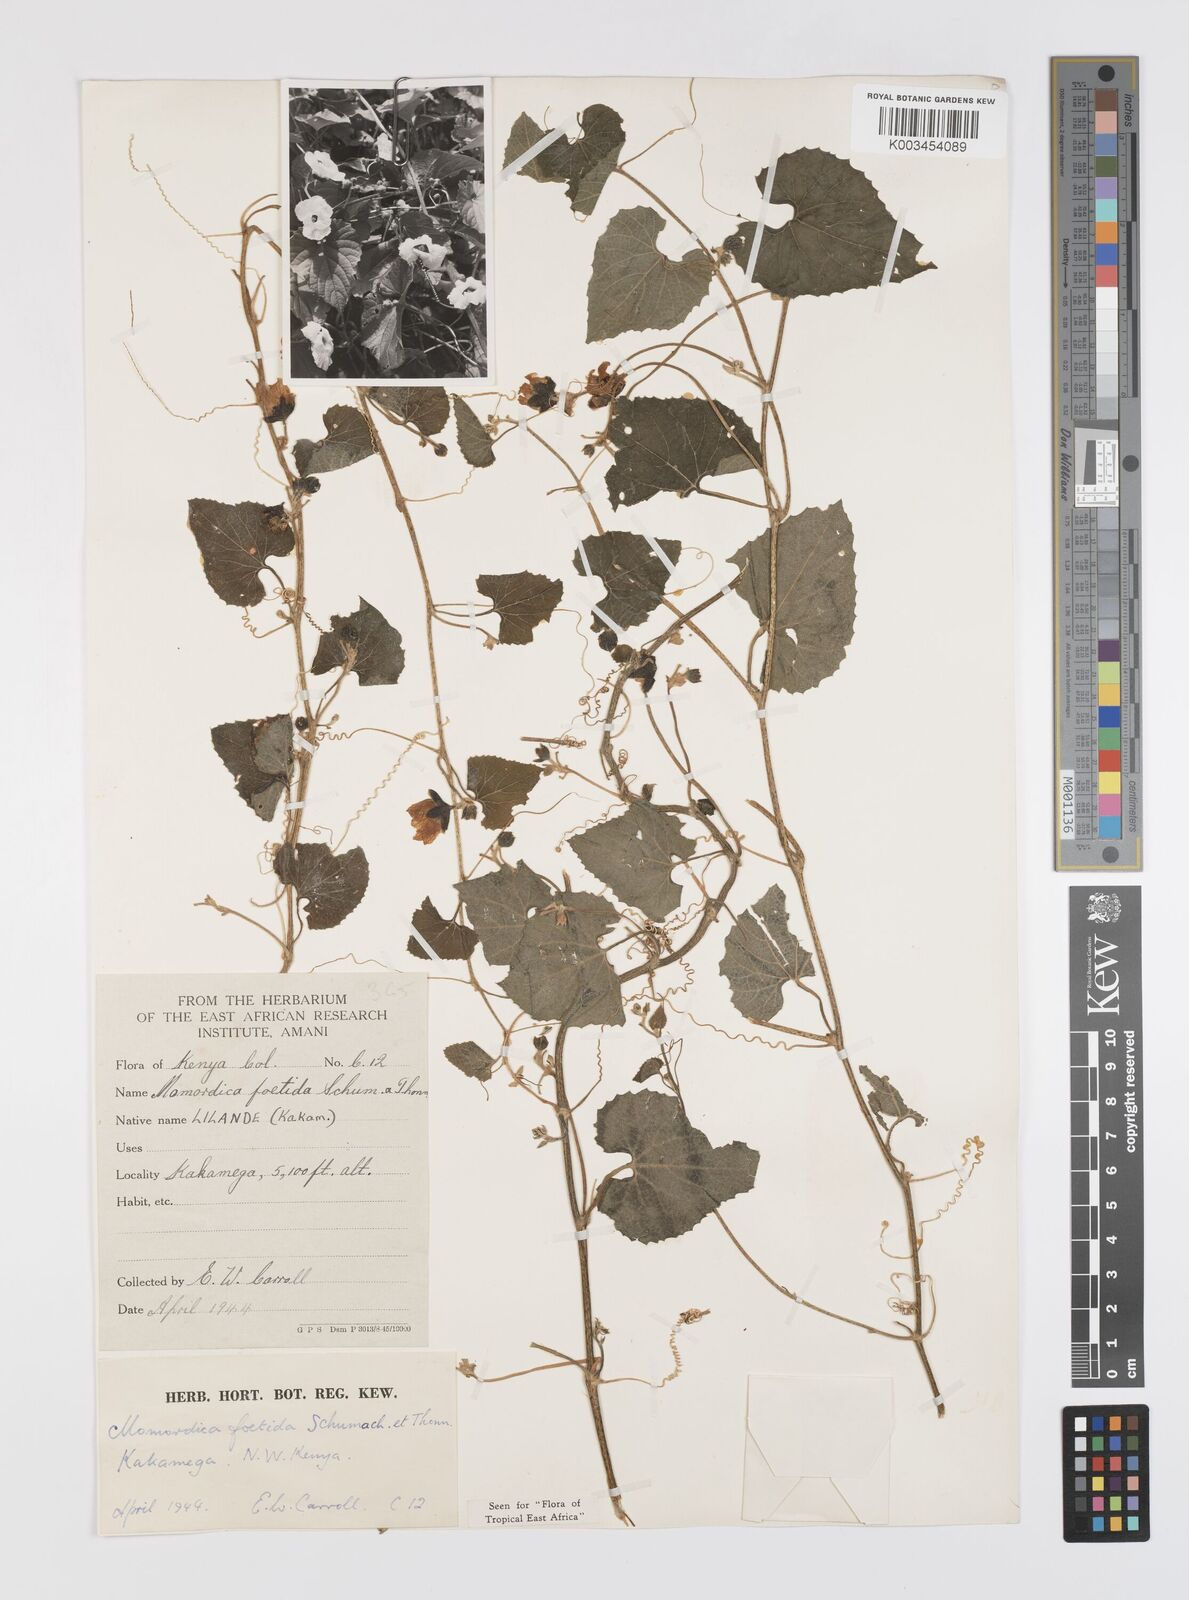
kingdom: Plantae
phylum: Tracheophyta
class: Magnoliopsida
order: Cucurbitales
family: Cucurbitaceae
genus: Momordica
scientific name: Momordica foetida
